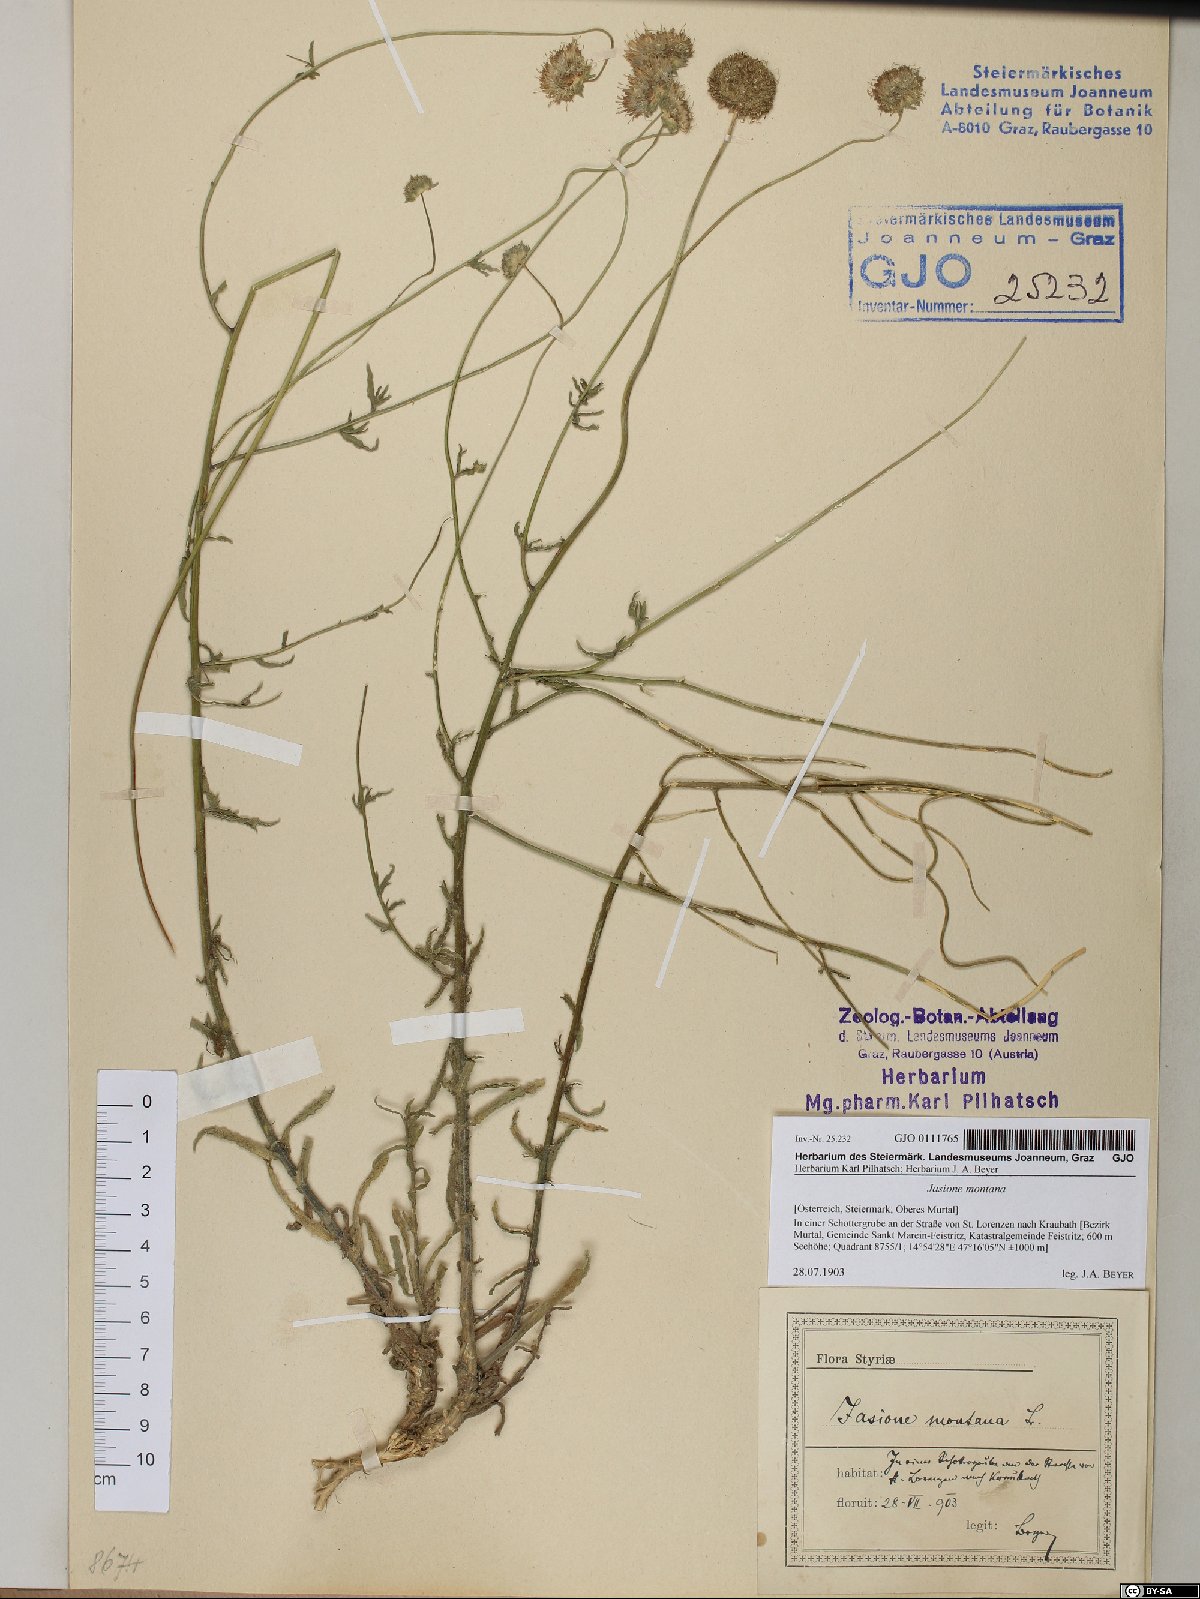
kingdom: Plantae
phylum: Tracheophyta
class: Magnoliopsida
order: Asterales
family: Campanulaceae
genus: Jasione
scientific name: Jasione montana
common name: Sheep's-bit
